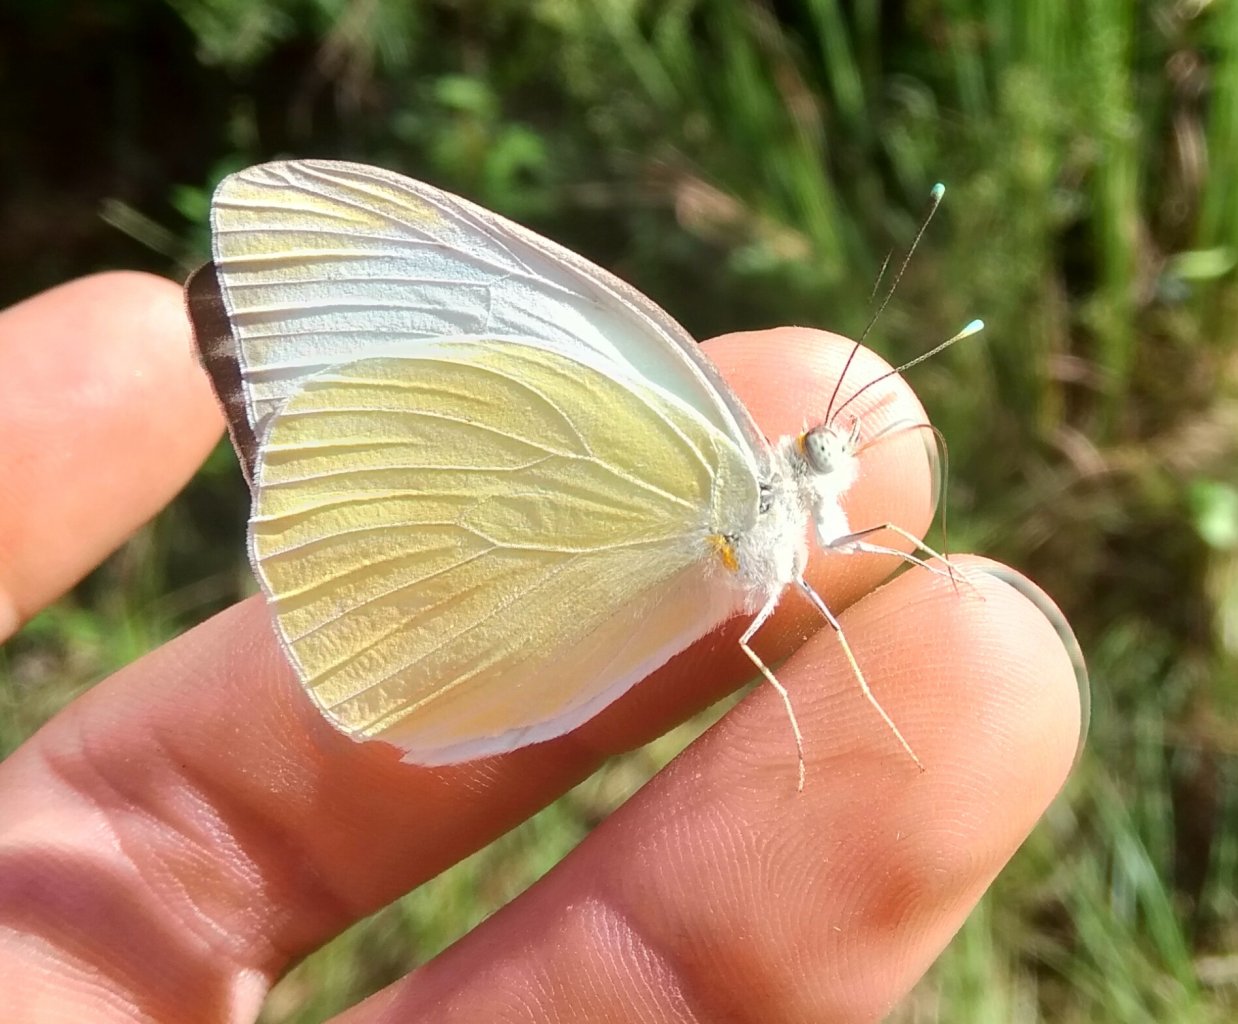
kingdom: Animalia
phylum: Arthropoda
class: Insecta
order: Lepidoptera
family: Pieridae
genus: Ascia
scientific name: Ascia monuste
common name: Great Southern White
